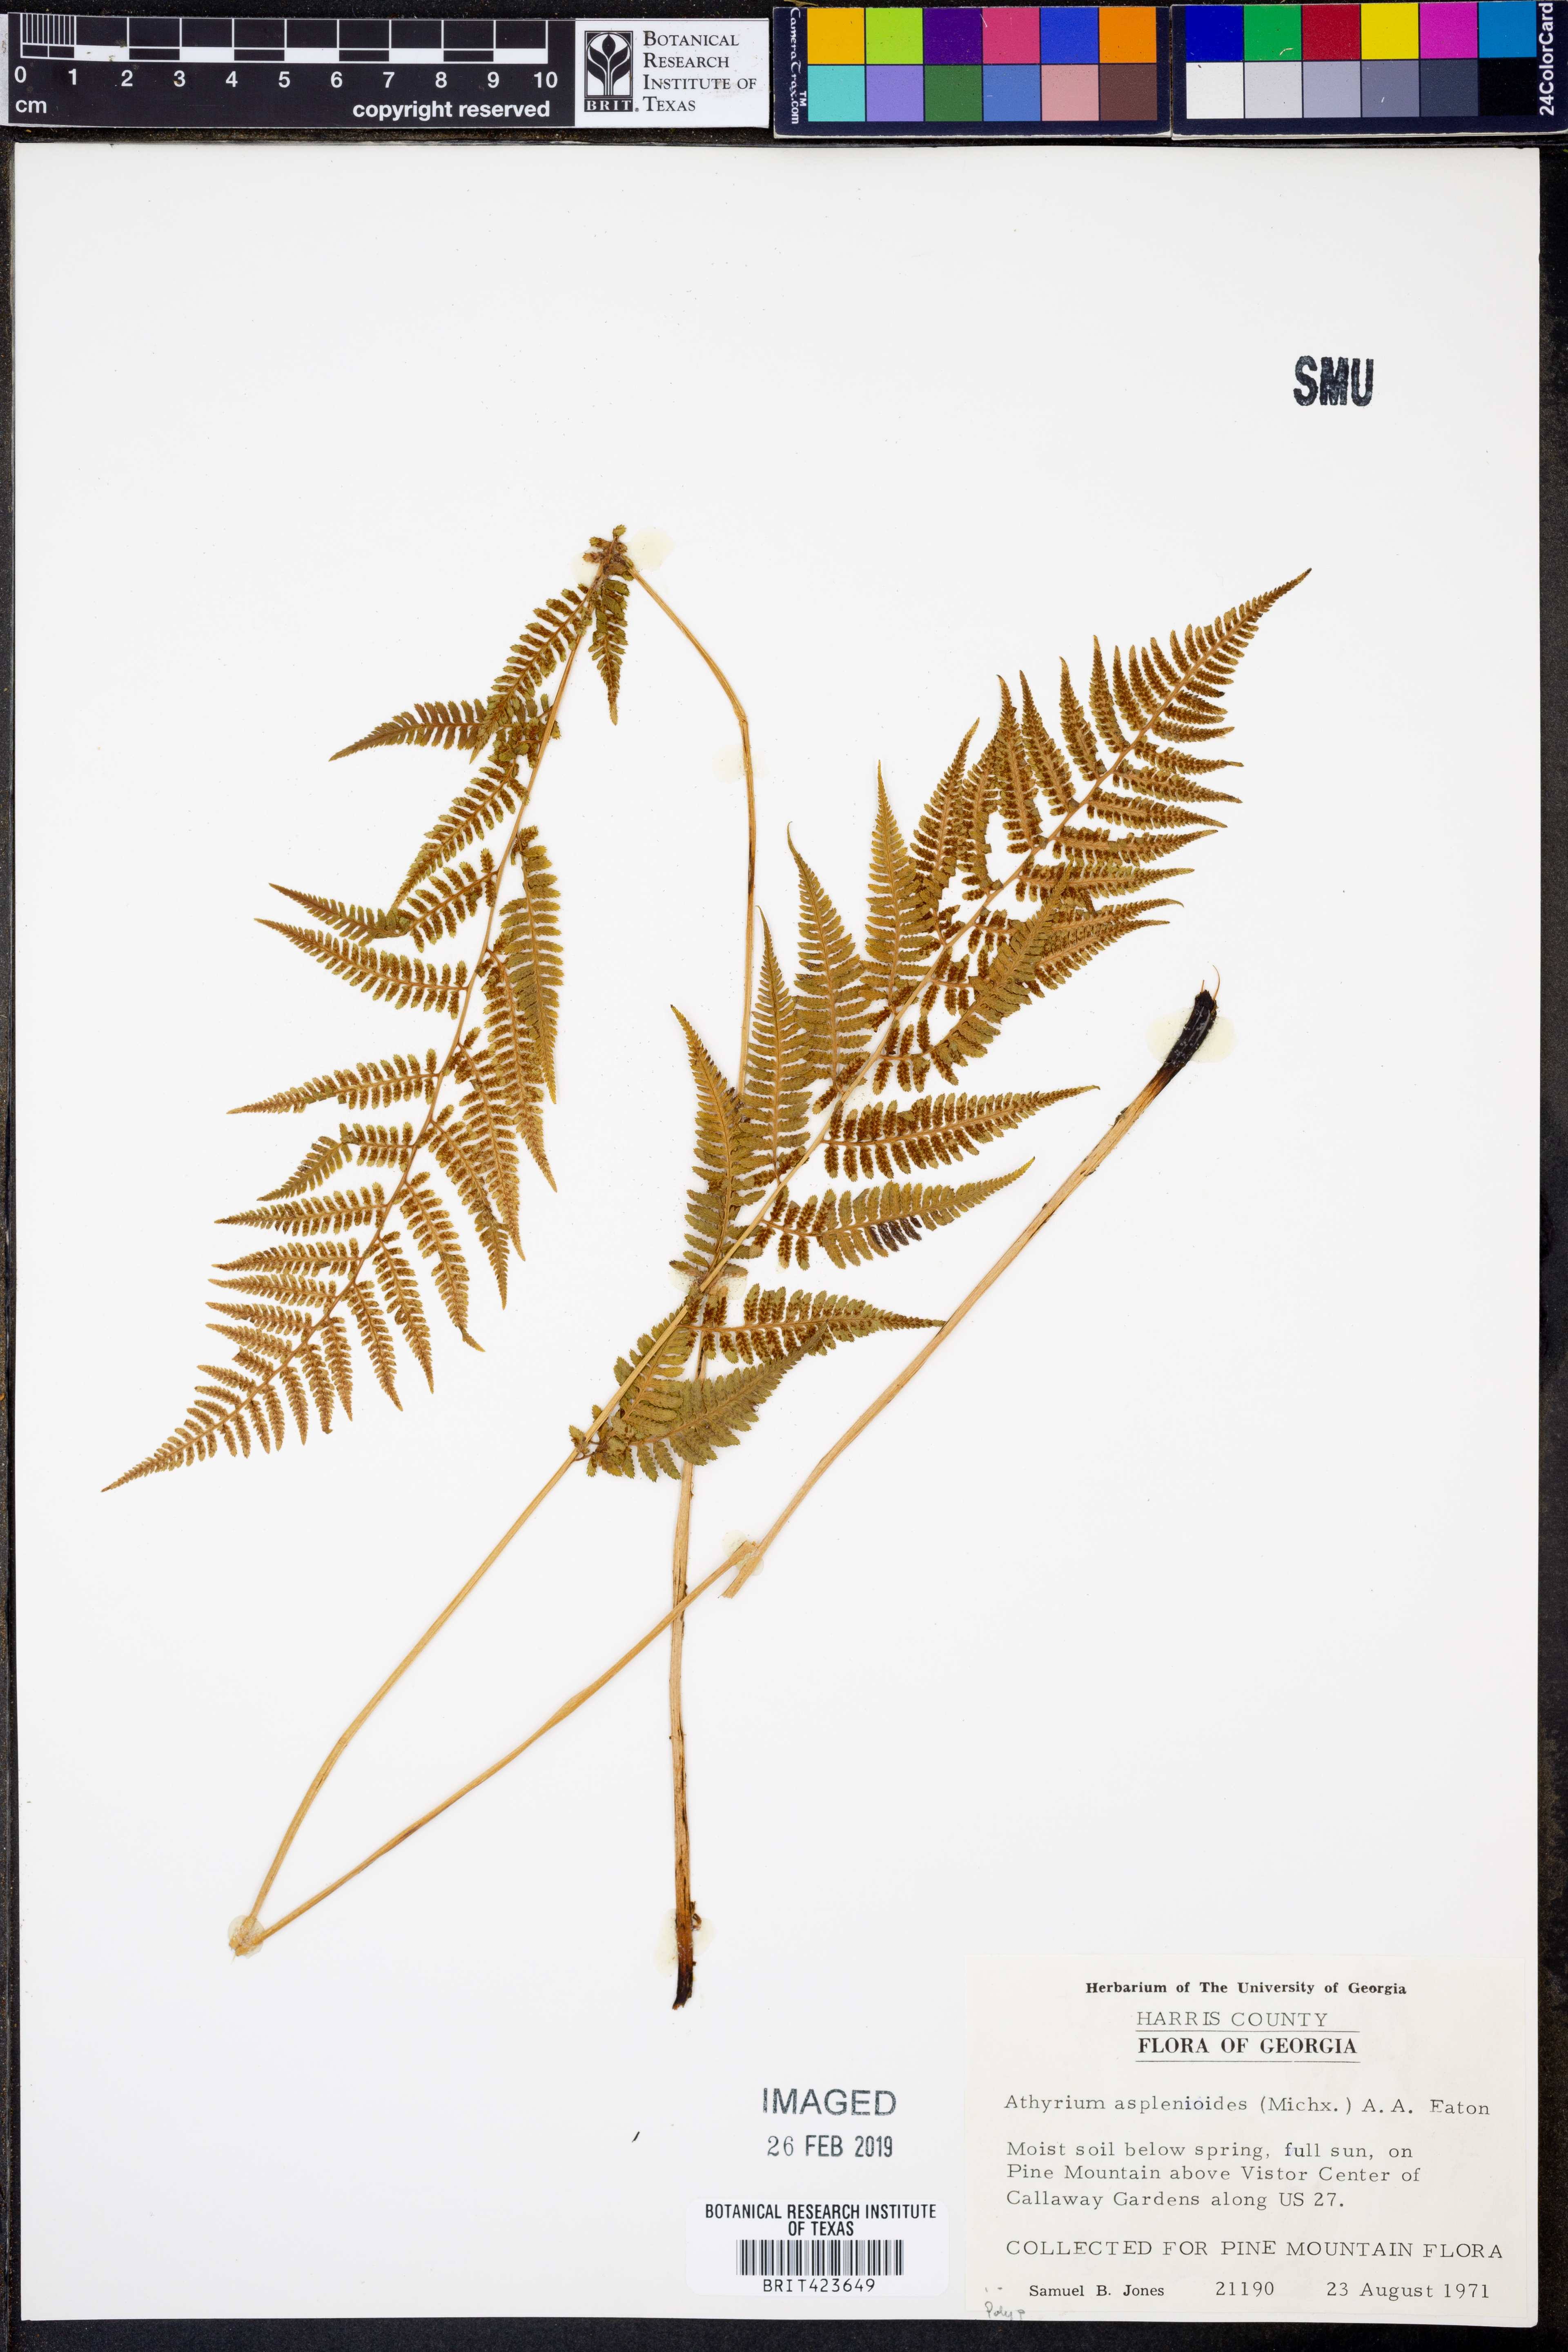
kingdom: Plantae
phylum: Tracheophyta
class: Polypodiopsida
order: Polypodiales
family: Athyriaceae
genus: Athyrium
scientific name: Athyrium asplenioides
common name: Southern lady fern
